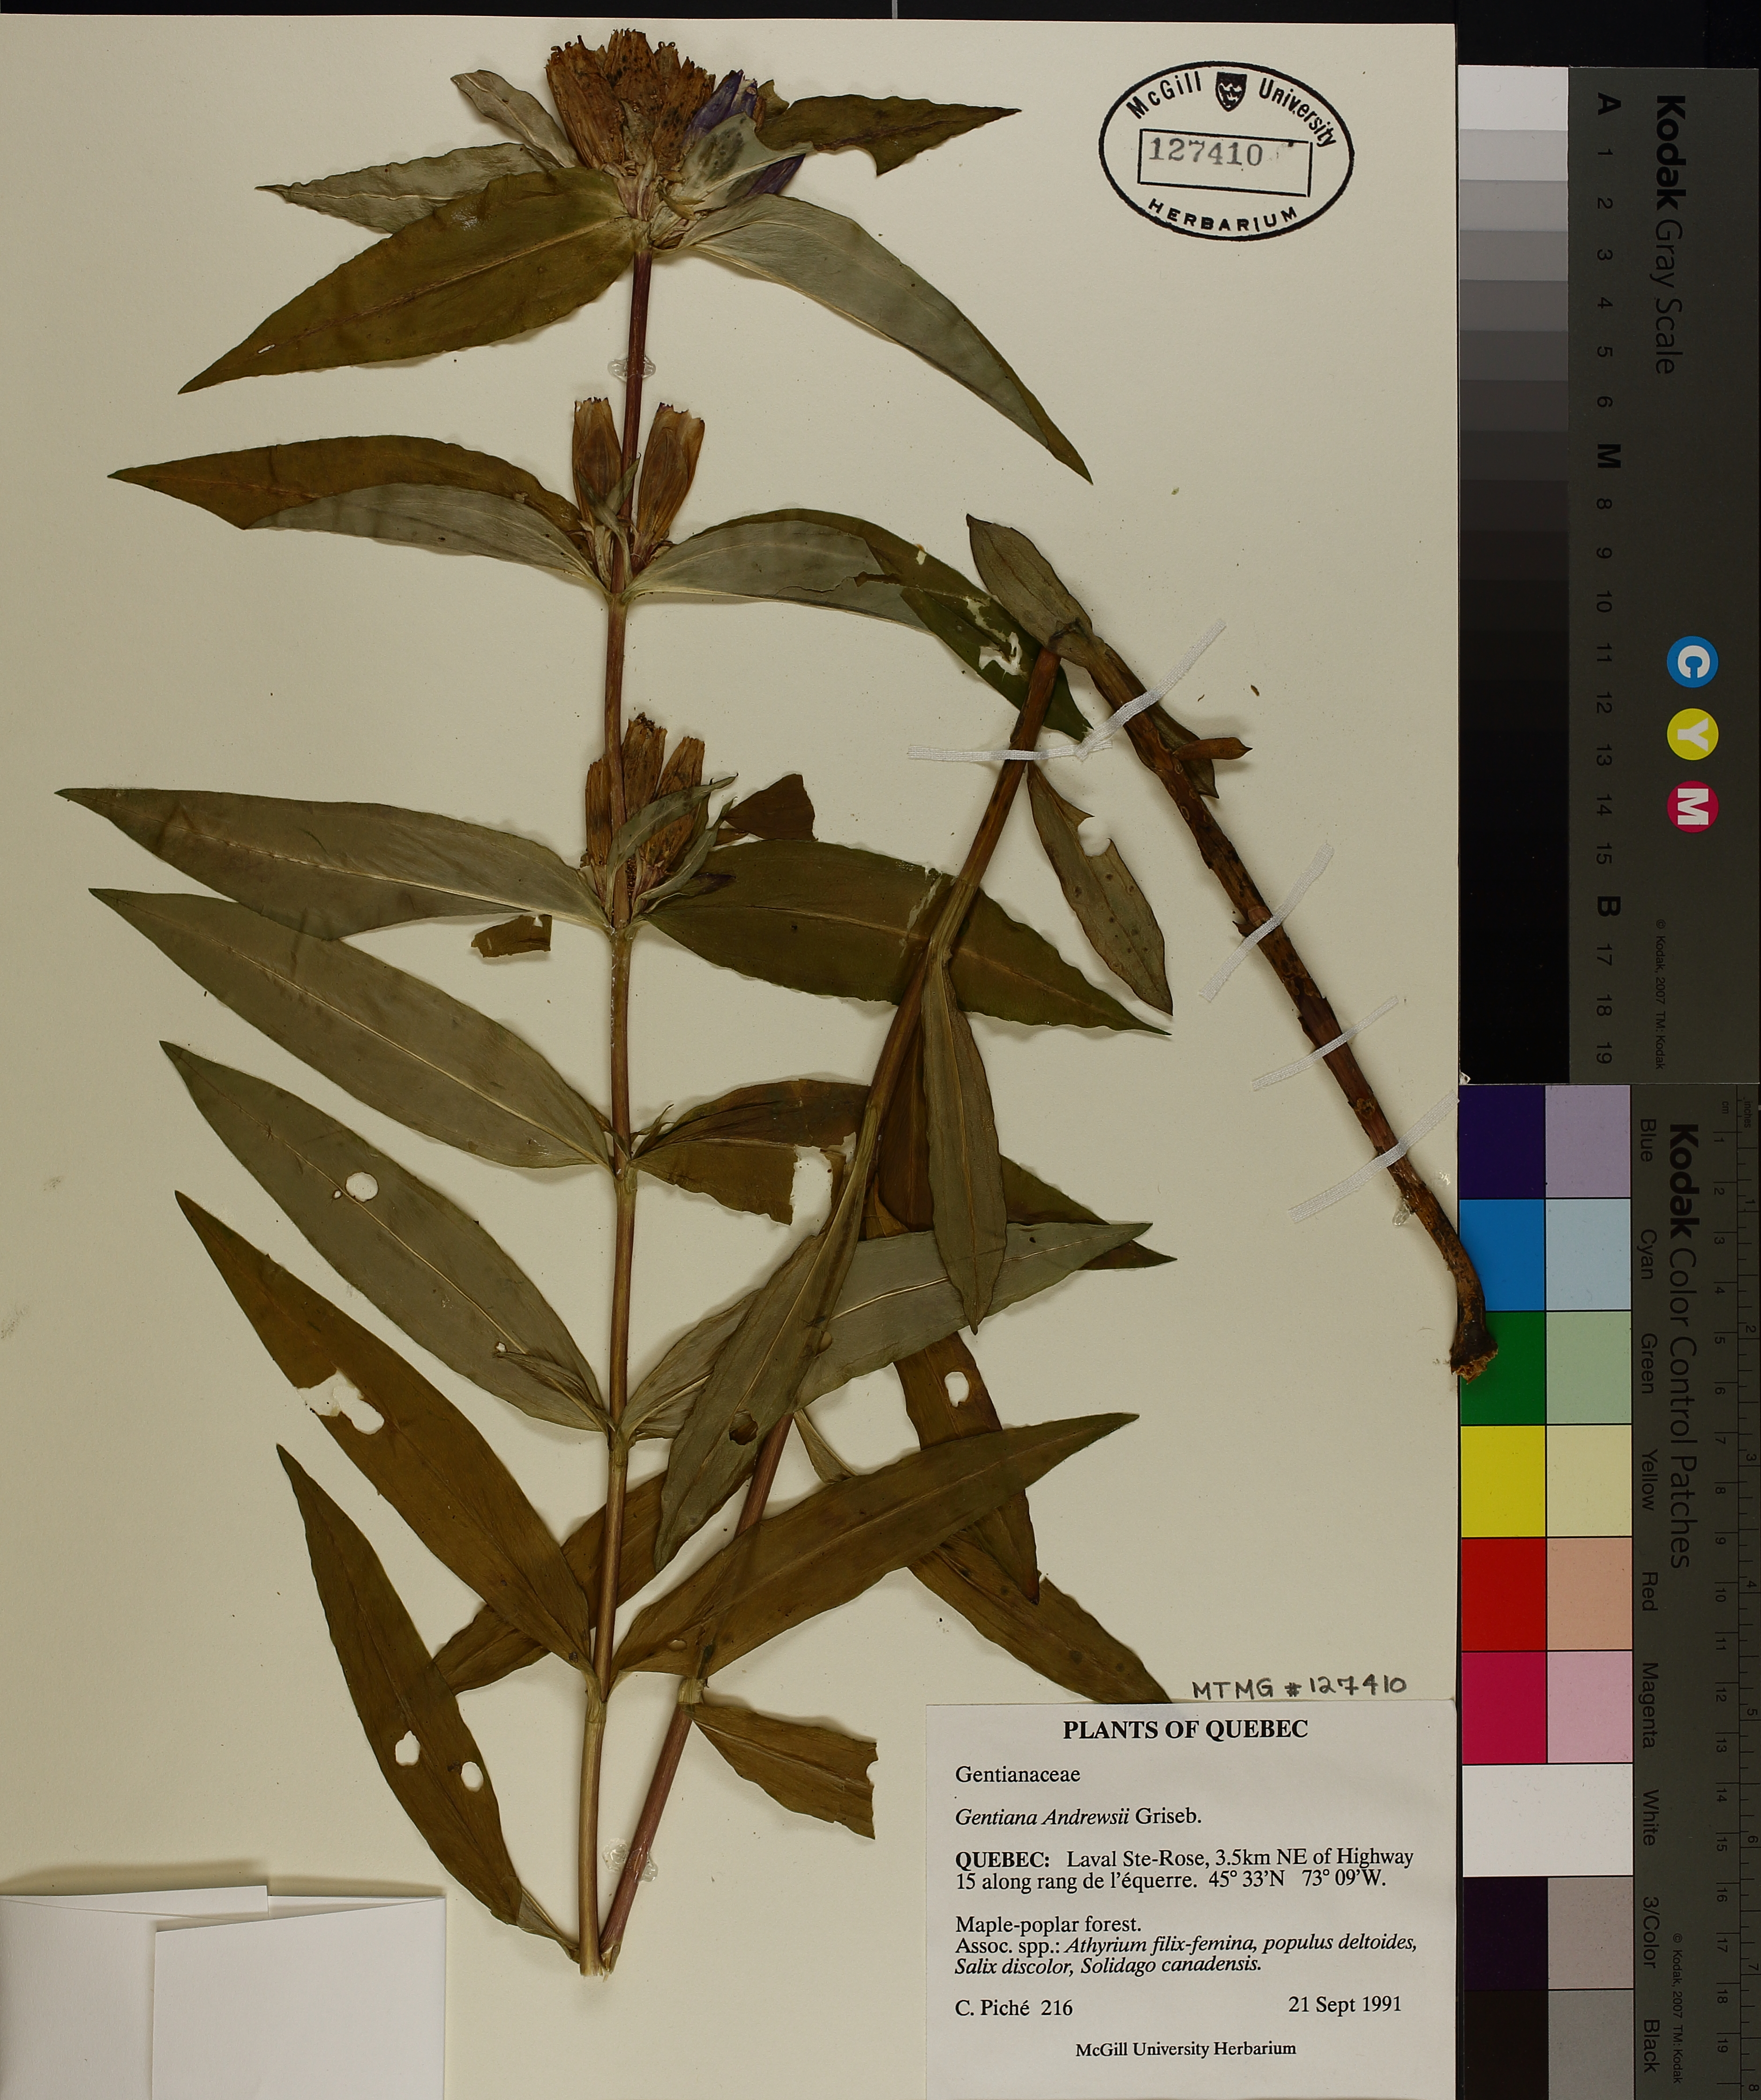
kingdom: Plantae
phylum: Tracheophyta
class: Magnoliopsida
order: Gentianales
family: Gentianaceae
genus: Gentiana
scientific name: Gentiana andrewsii
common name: Bottle gentian
